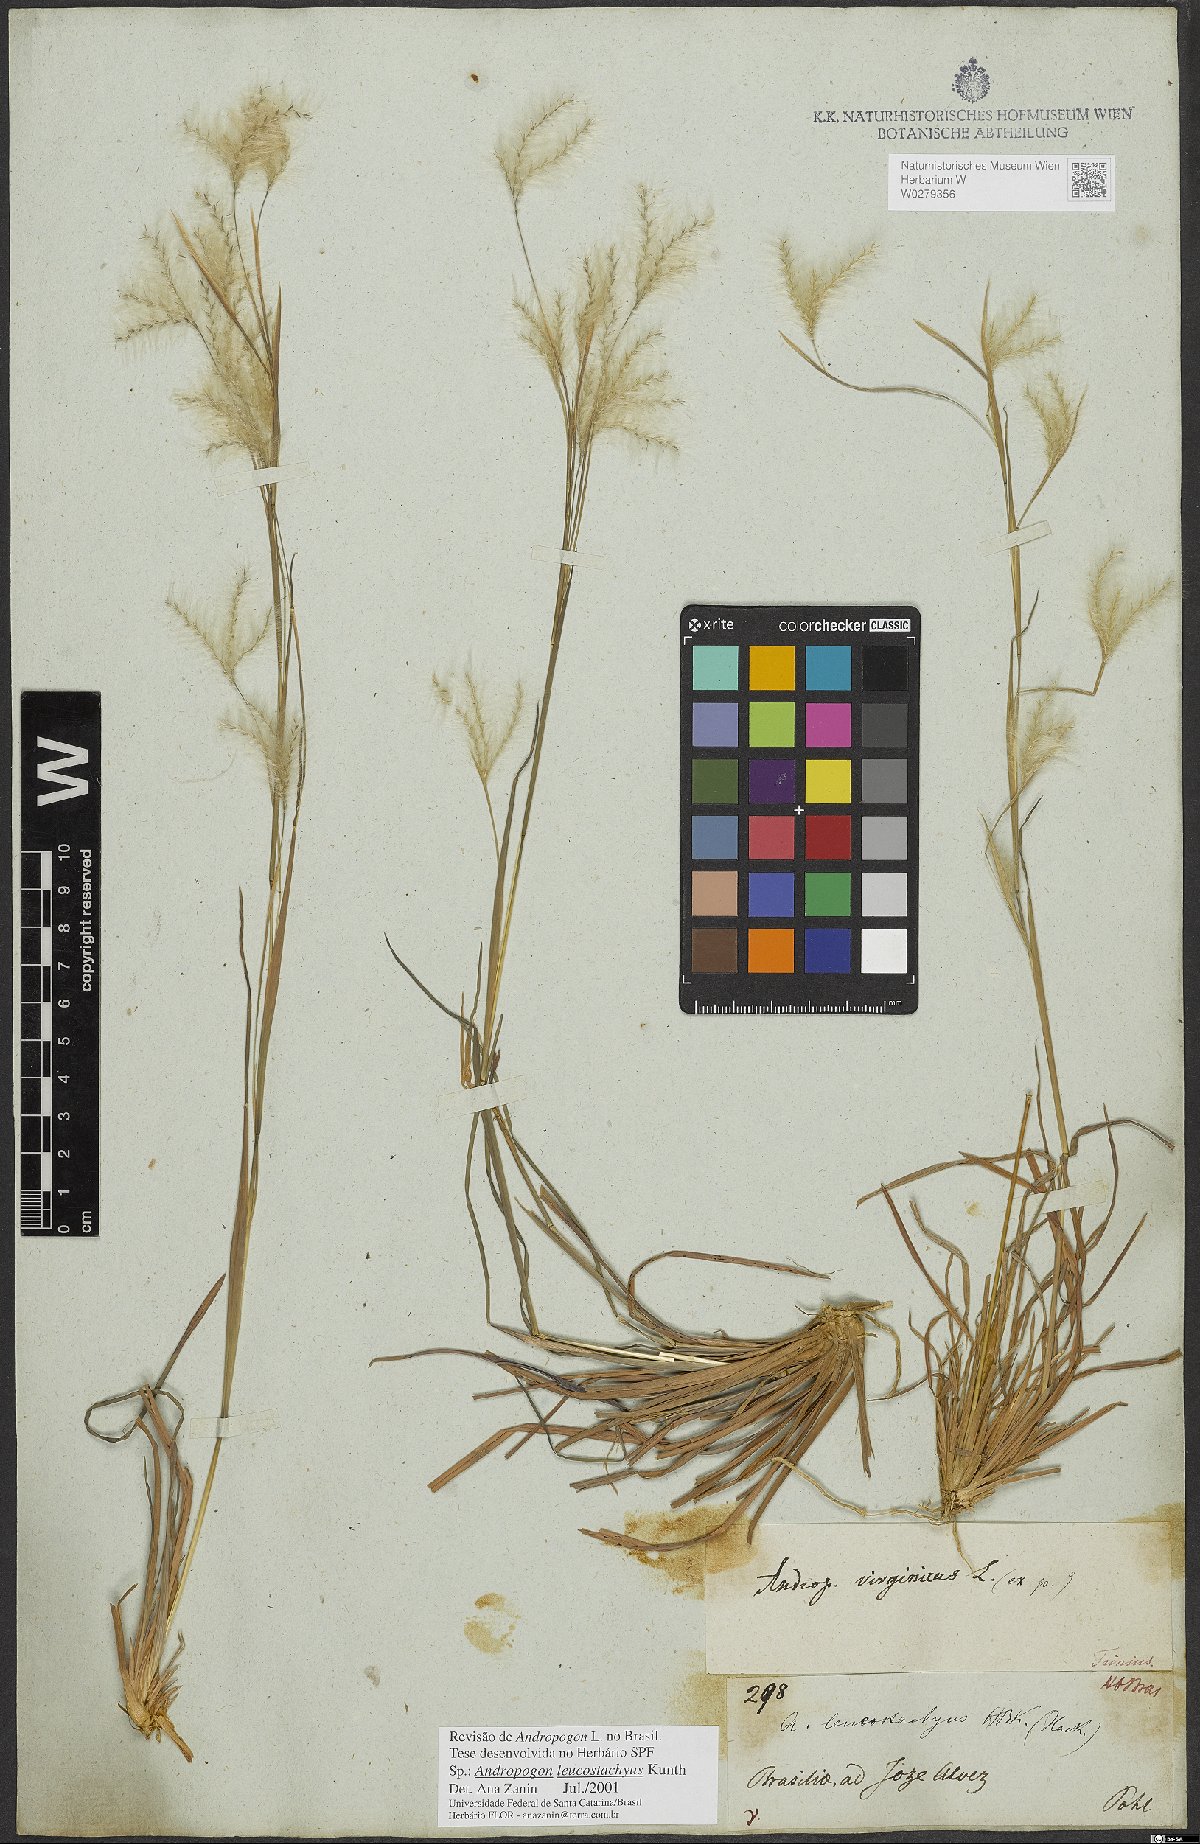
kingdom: Plantae
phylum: Tracheophyta
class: Liliopsida
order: Poales
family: Poaceae
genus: Andropogon
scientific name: Andropogon leucostachyus
